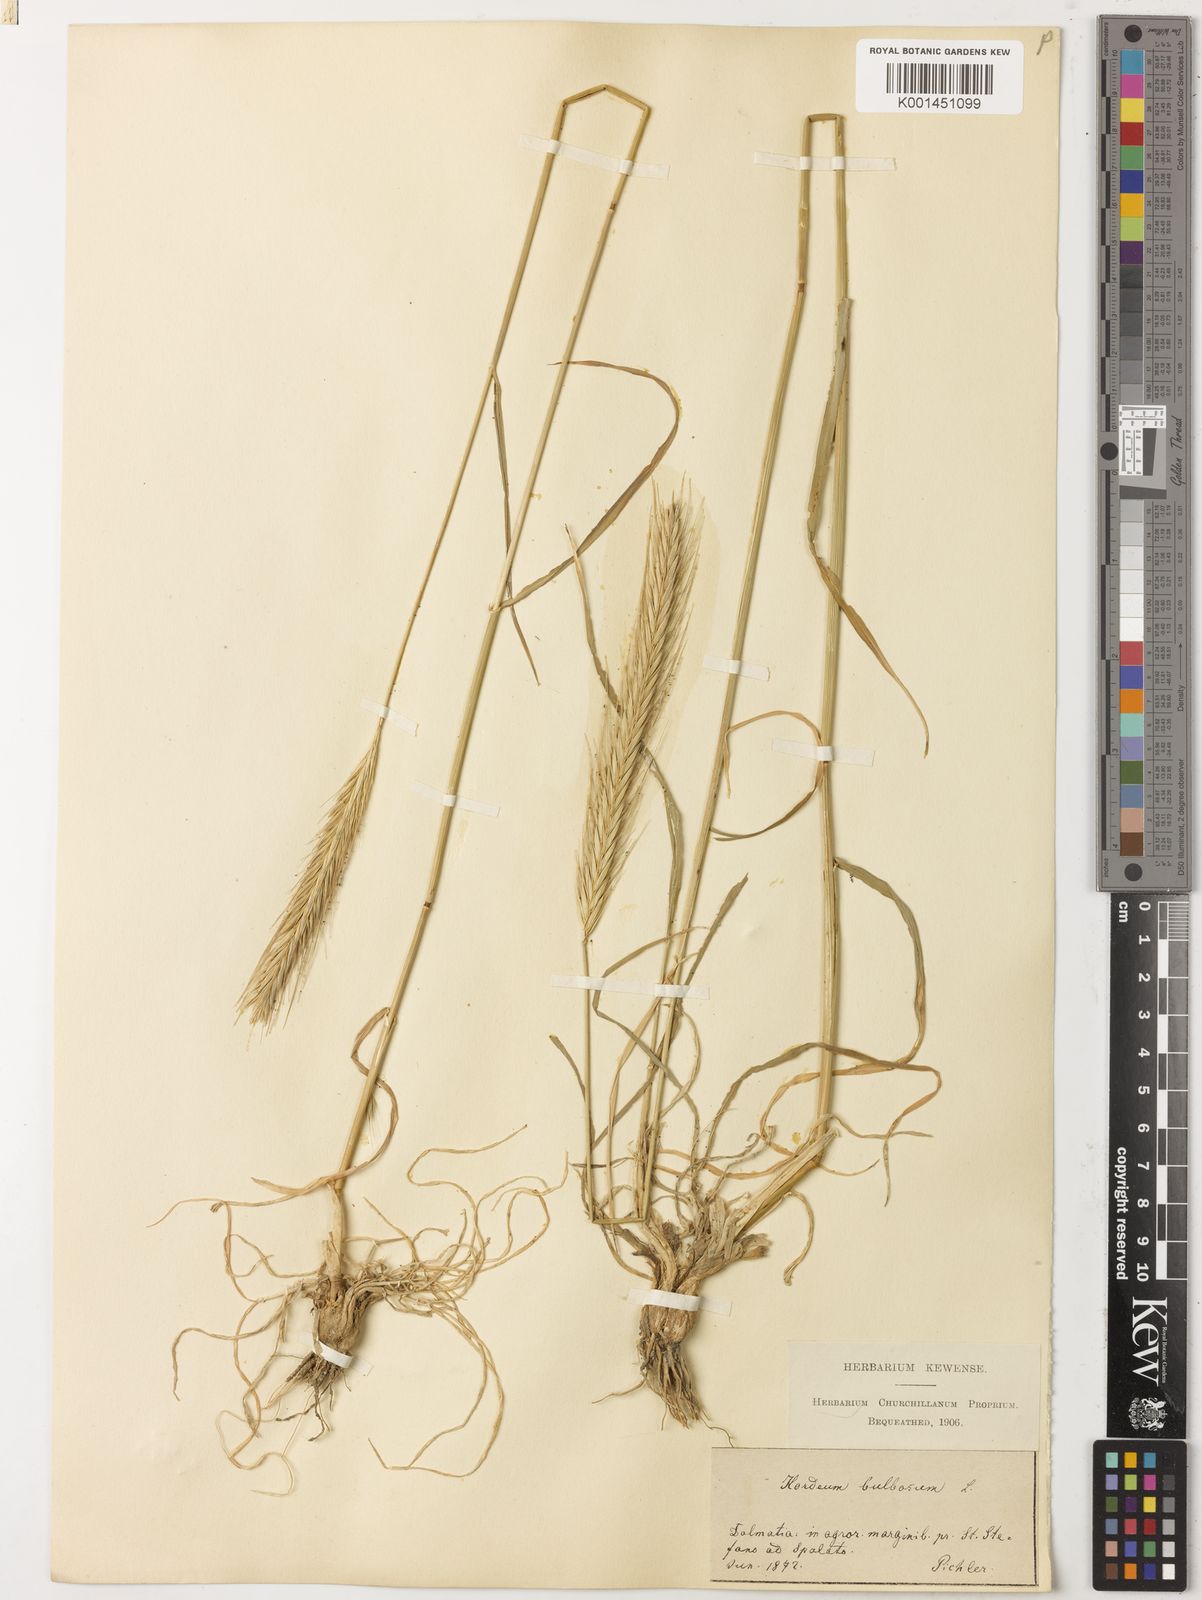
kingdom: Plantae
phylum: Tracheophyta
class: Liliopsida
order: Poales
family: Poaceae
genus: Hordeum
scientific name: Hordeum bulbosum
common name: Bulbous barley
